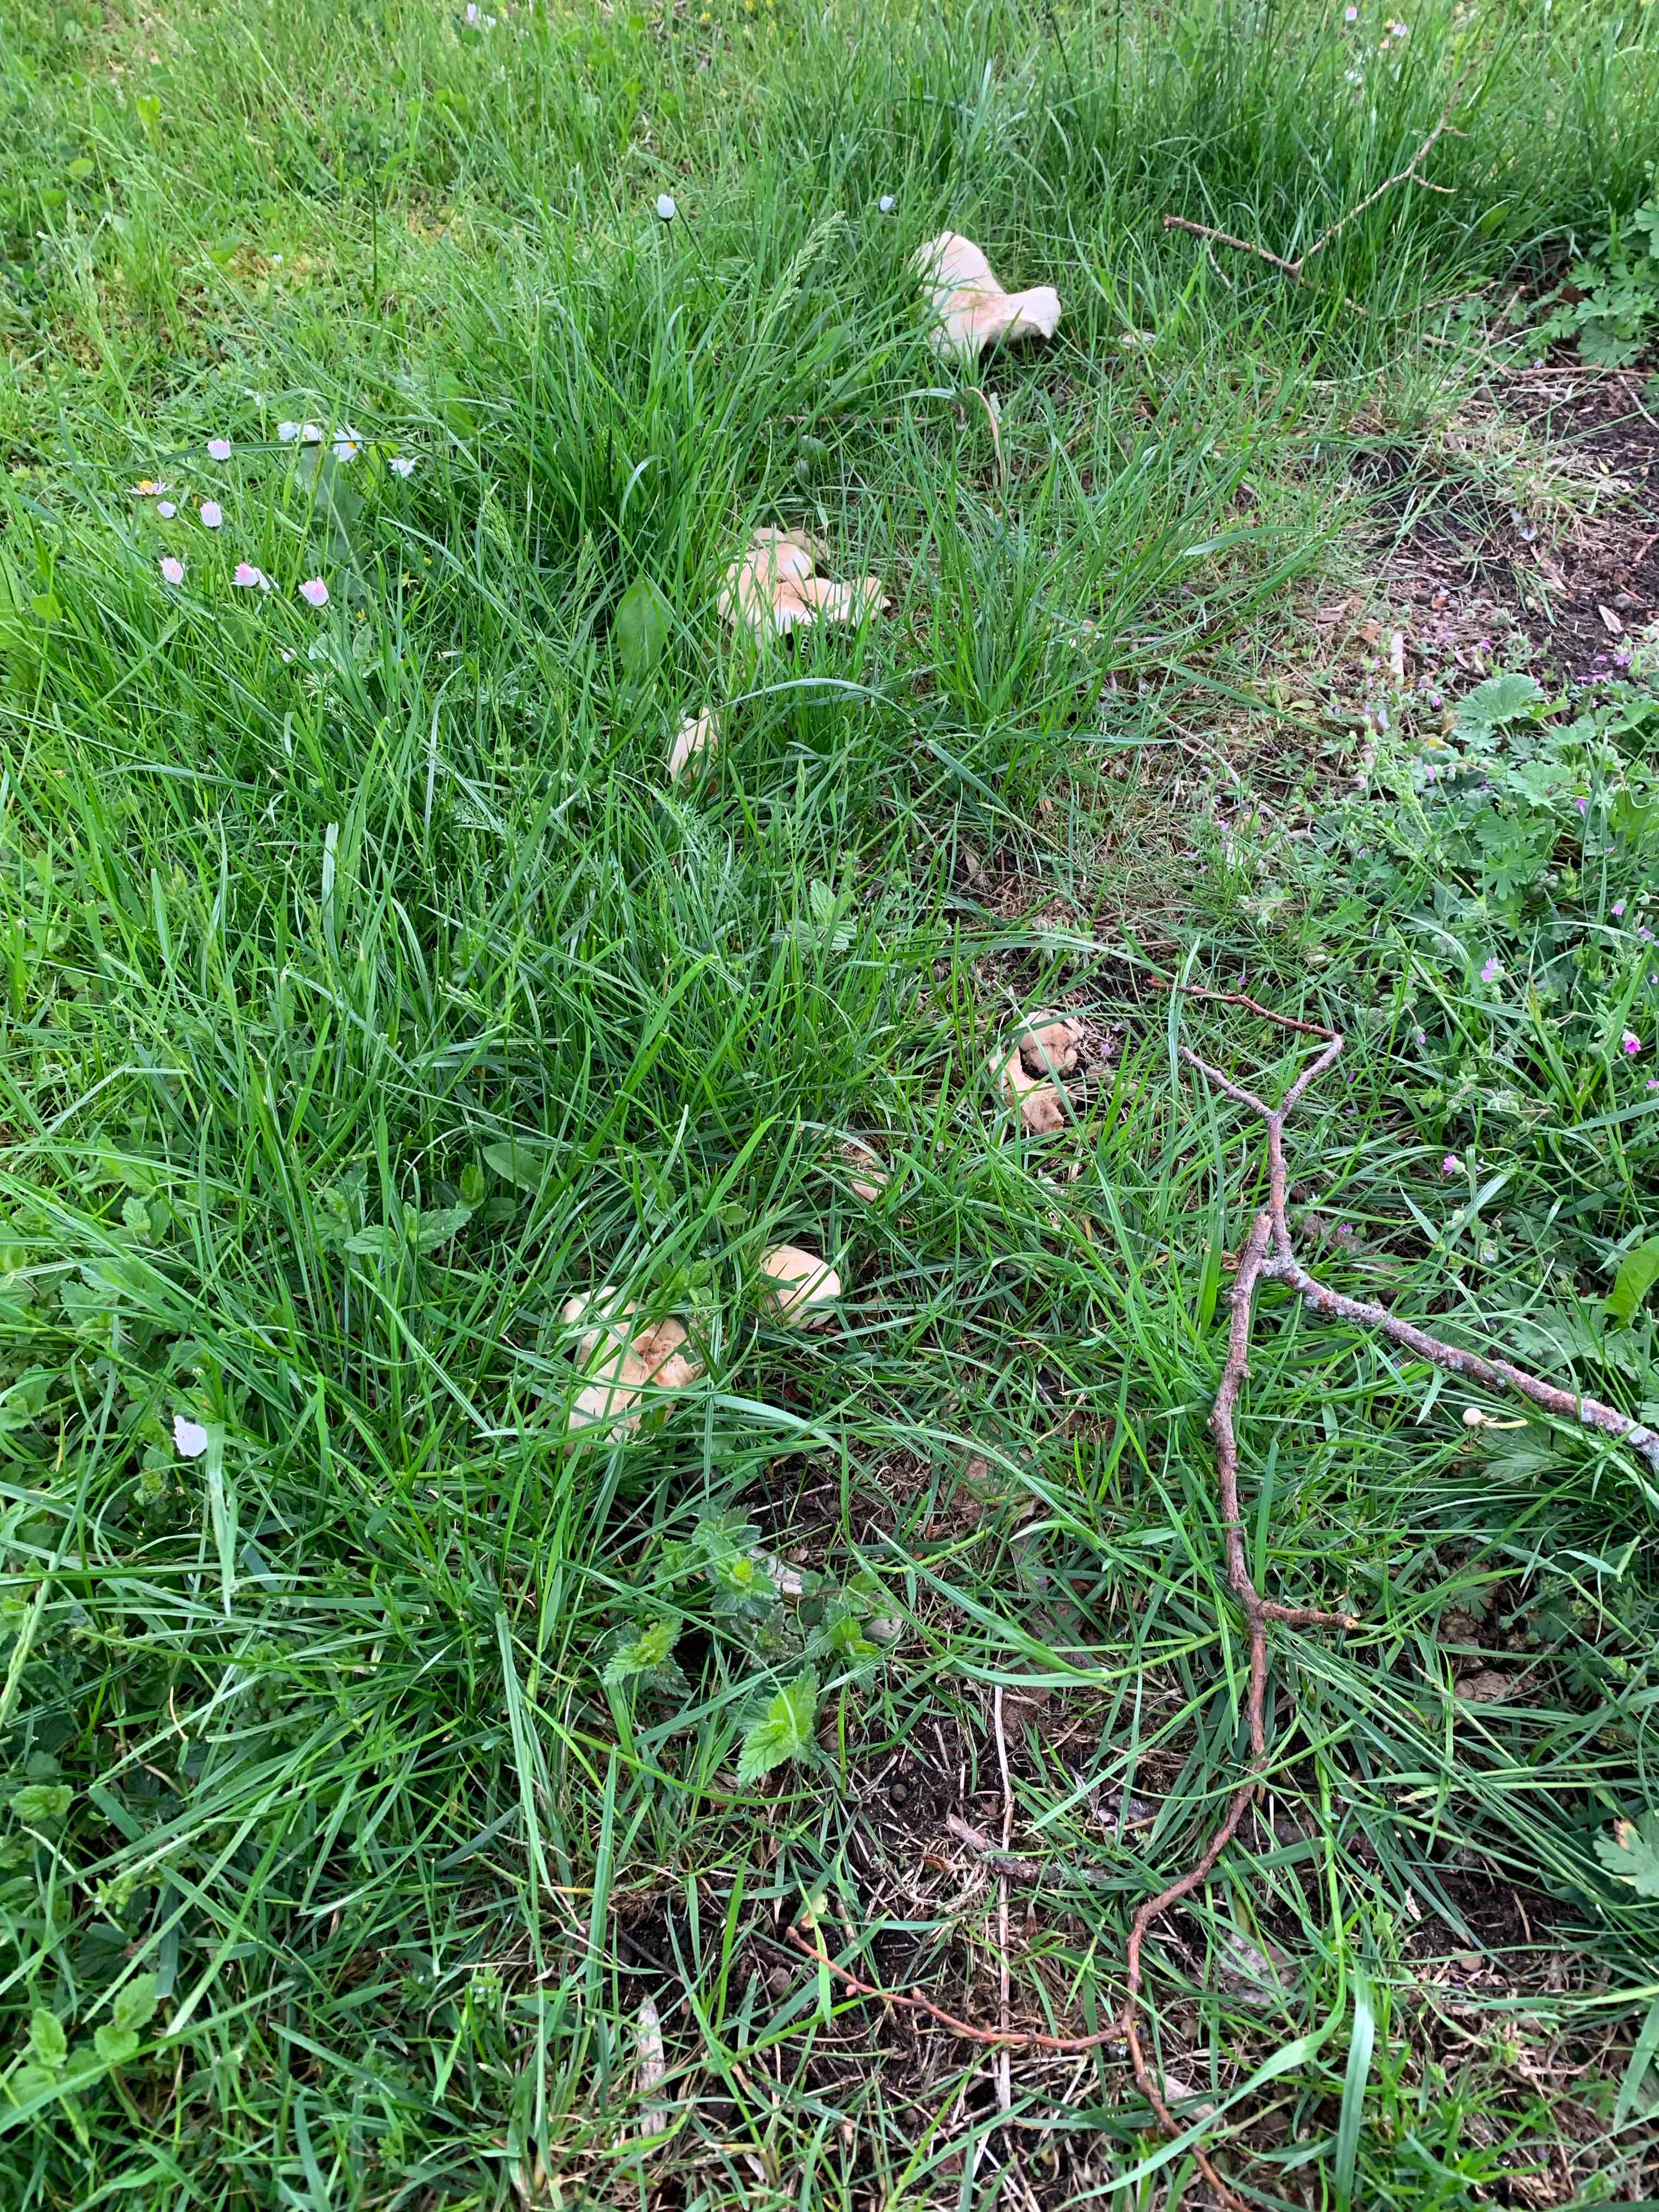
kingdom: Fungi
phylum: Basidiomycota
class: Agaricomycetes
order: Agaricales
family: Lyophyllaceae
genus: Calocybe
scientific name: Calocybe gambosa
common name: vårmusseron
